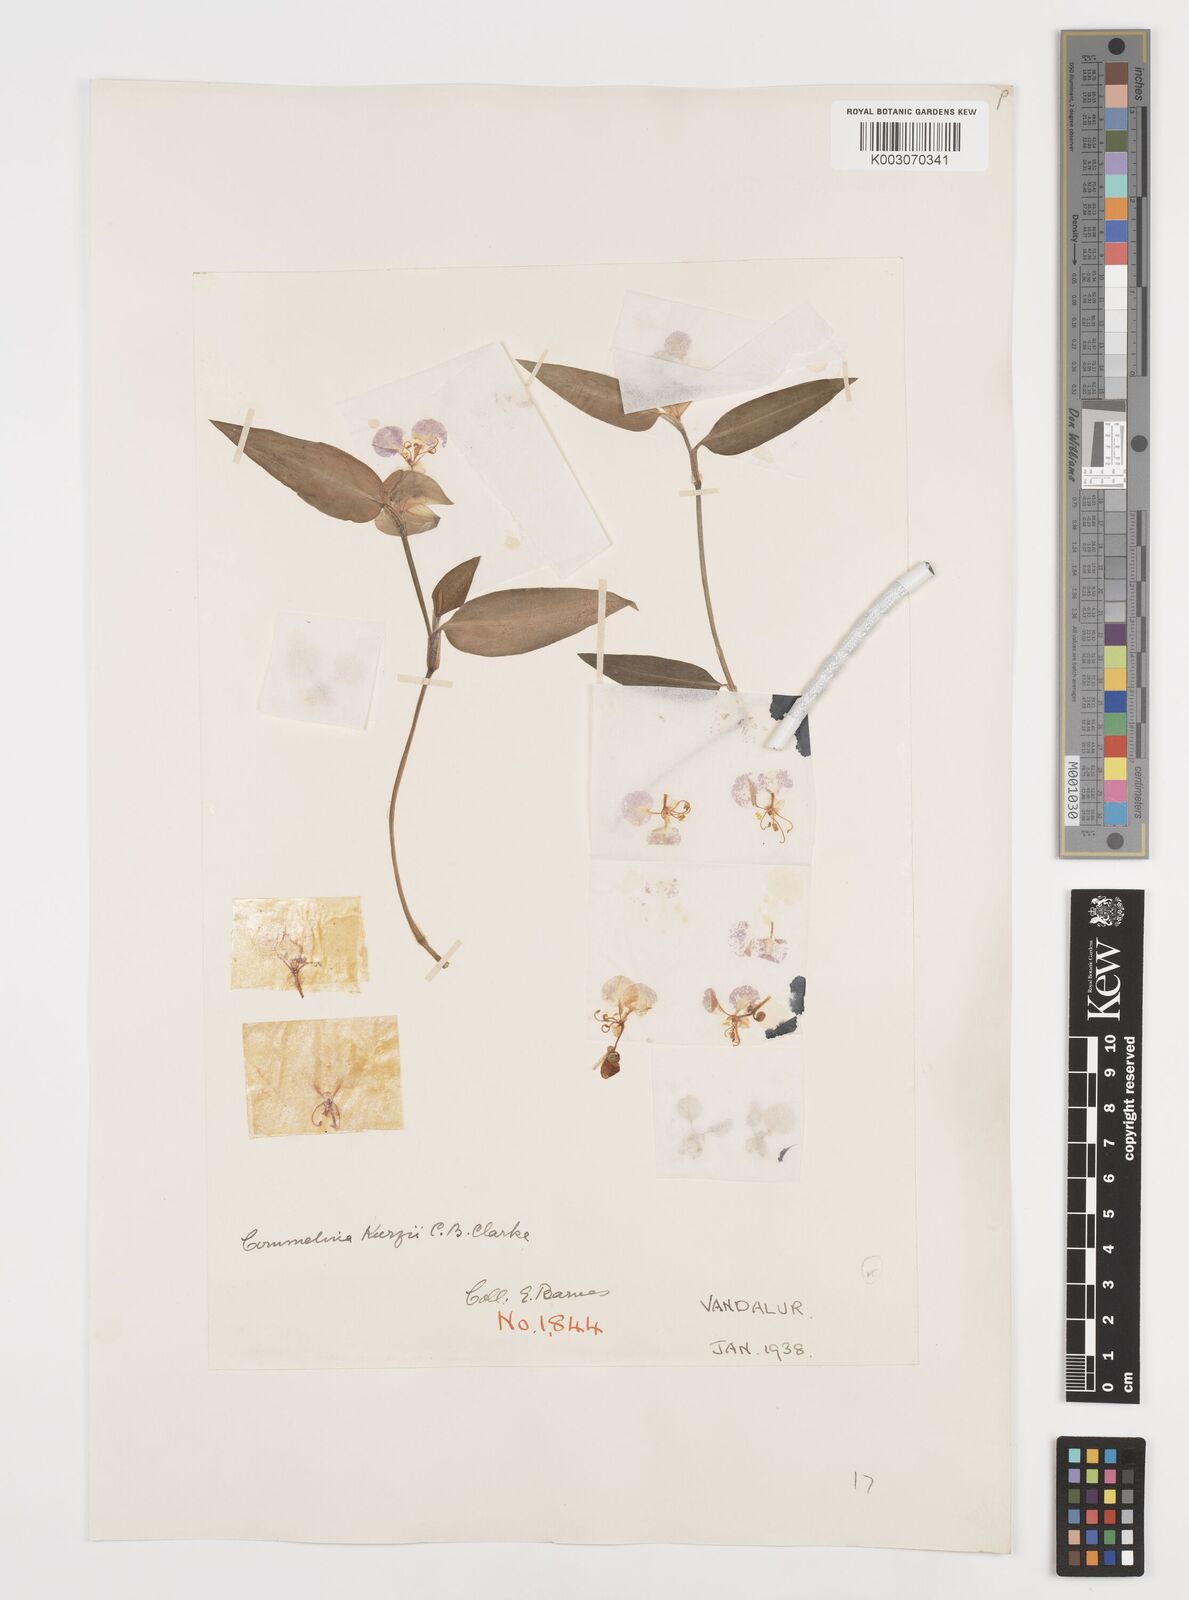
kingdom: Plantae
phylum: Tracheophyta
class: Liliopsida
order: Commelinales
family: Commelinaceae
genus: Commelina
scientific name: Commelina undulata
